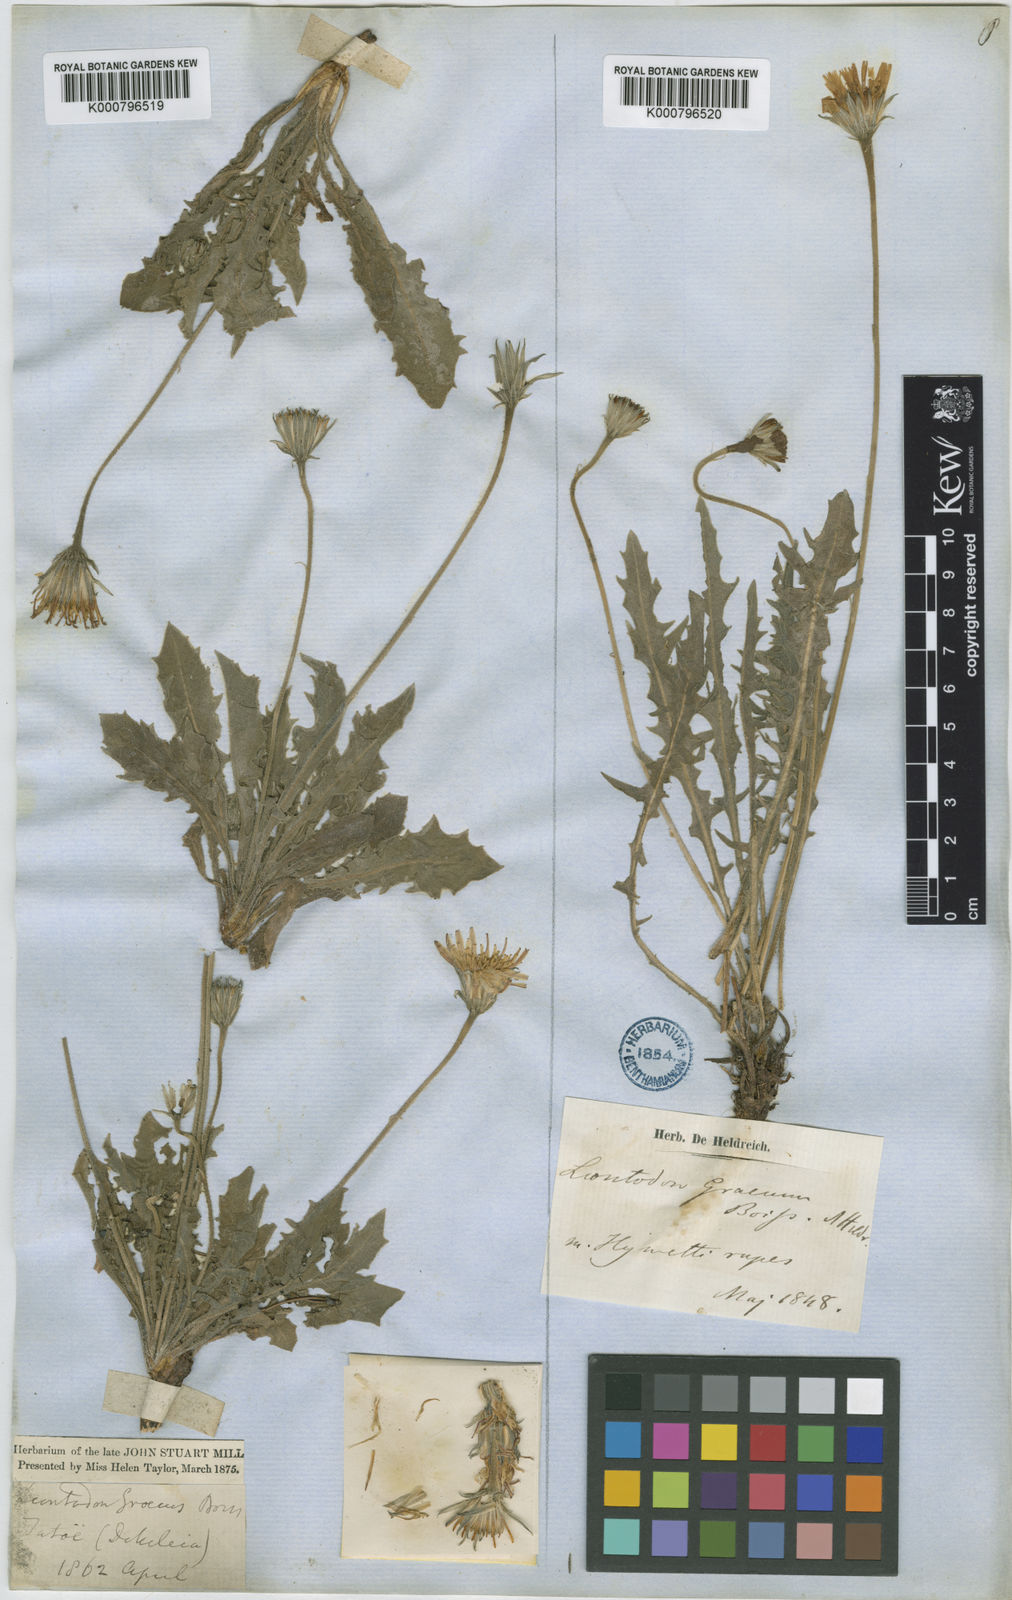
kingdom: Plantae
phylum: Tracheophyta
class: Magnoliopsida
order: Asterales
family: Asteraceae
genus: Leontodon
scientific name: Leontodon crispus
